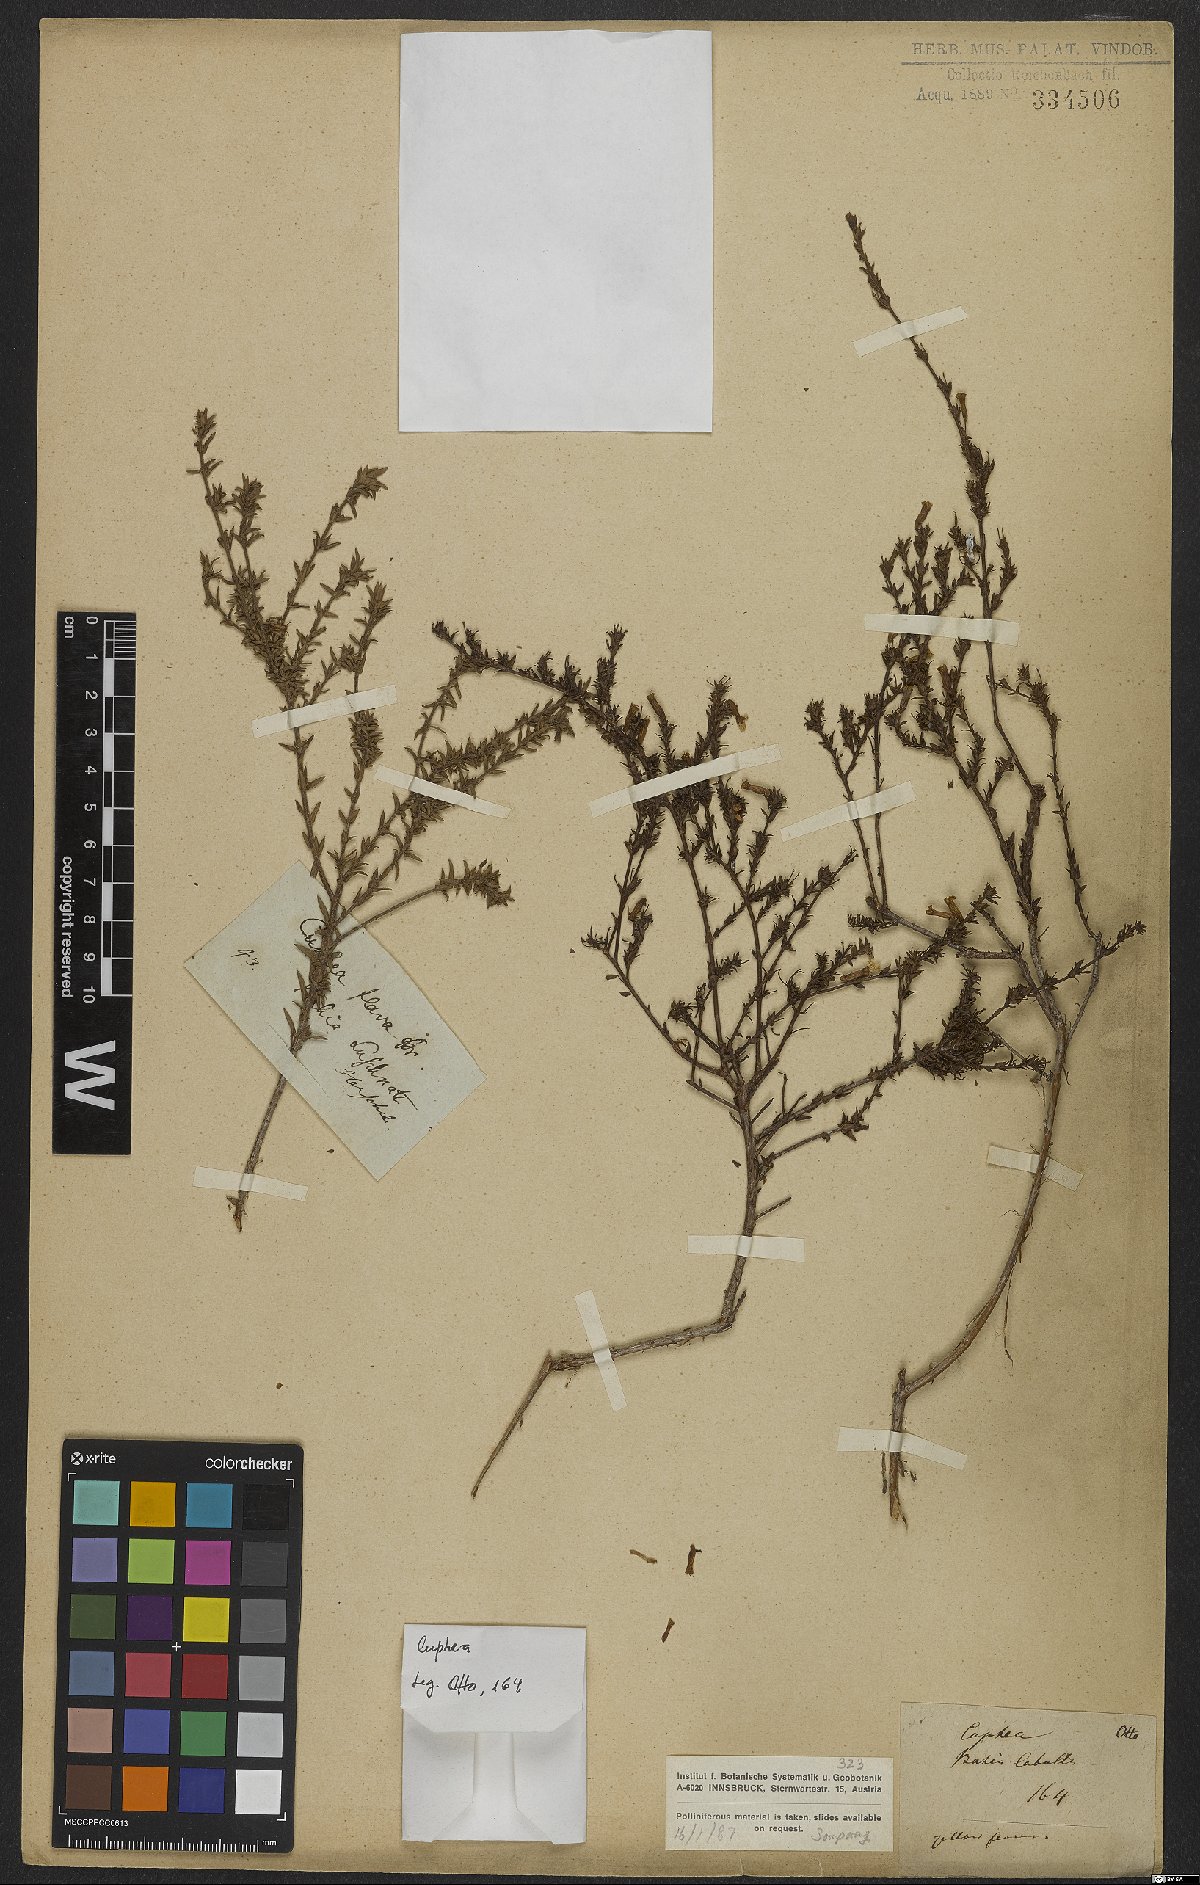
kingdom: Plantae
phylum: Tracheophyta
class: Magnoliopsida
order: Myrtales
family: Lythraceae
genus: Cuphea
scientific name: Cuphea flava
